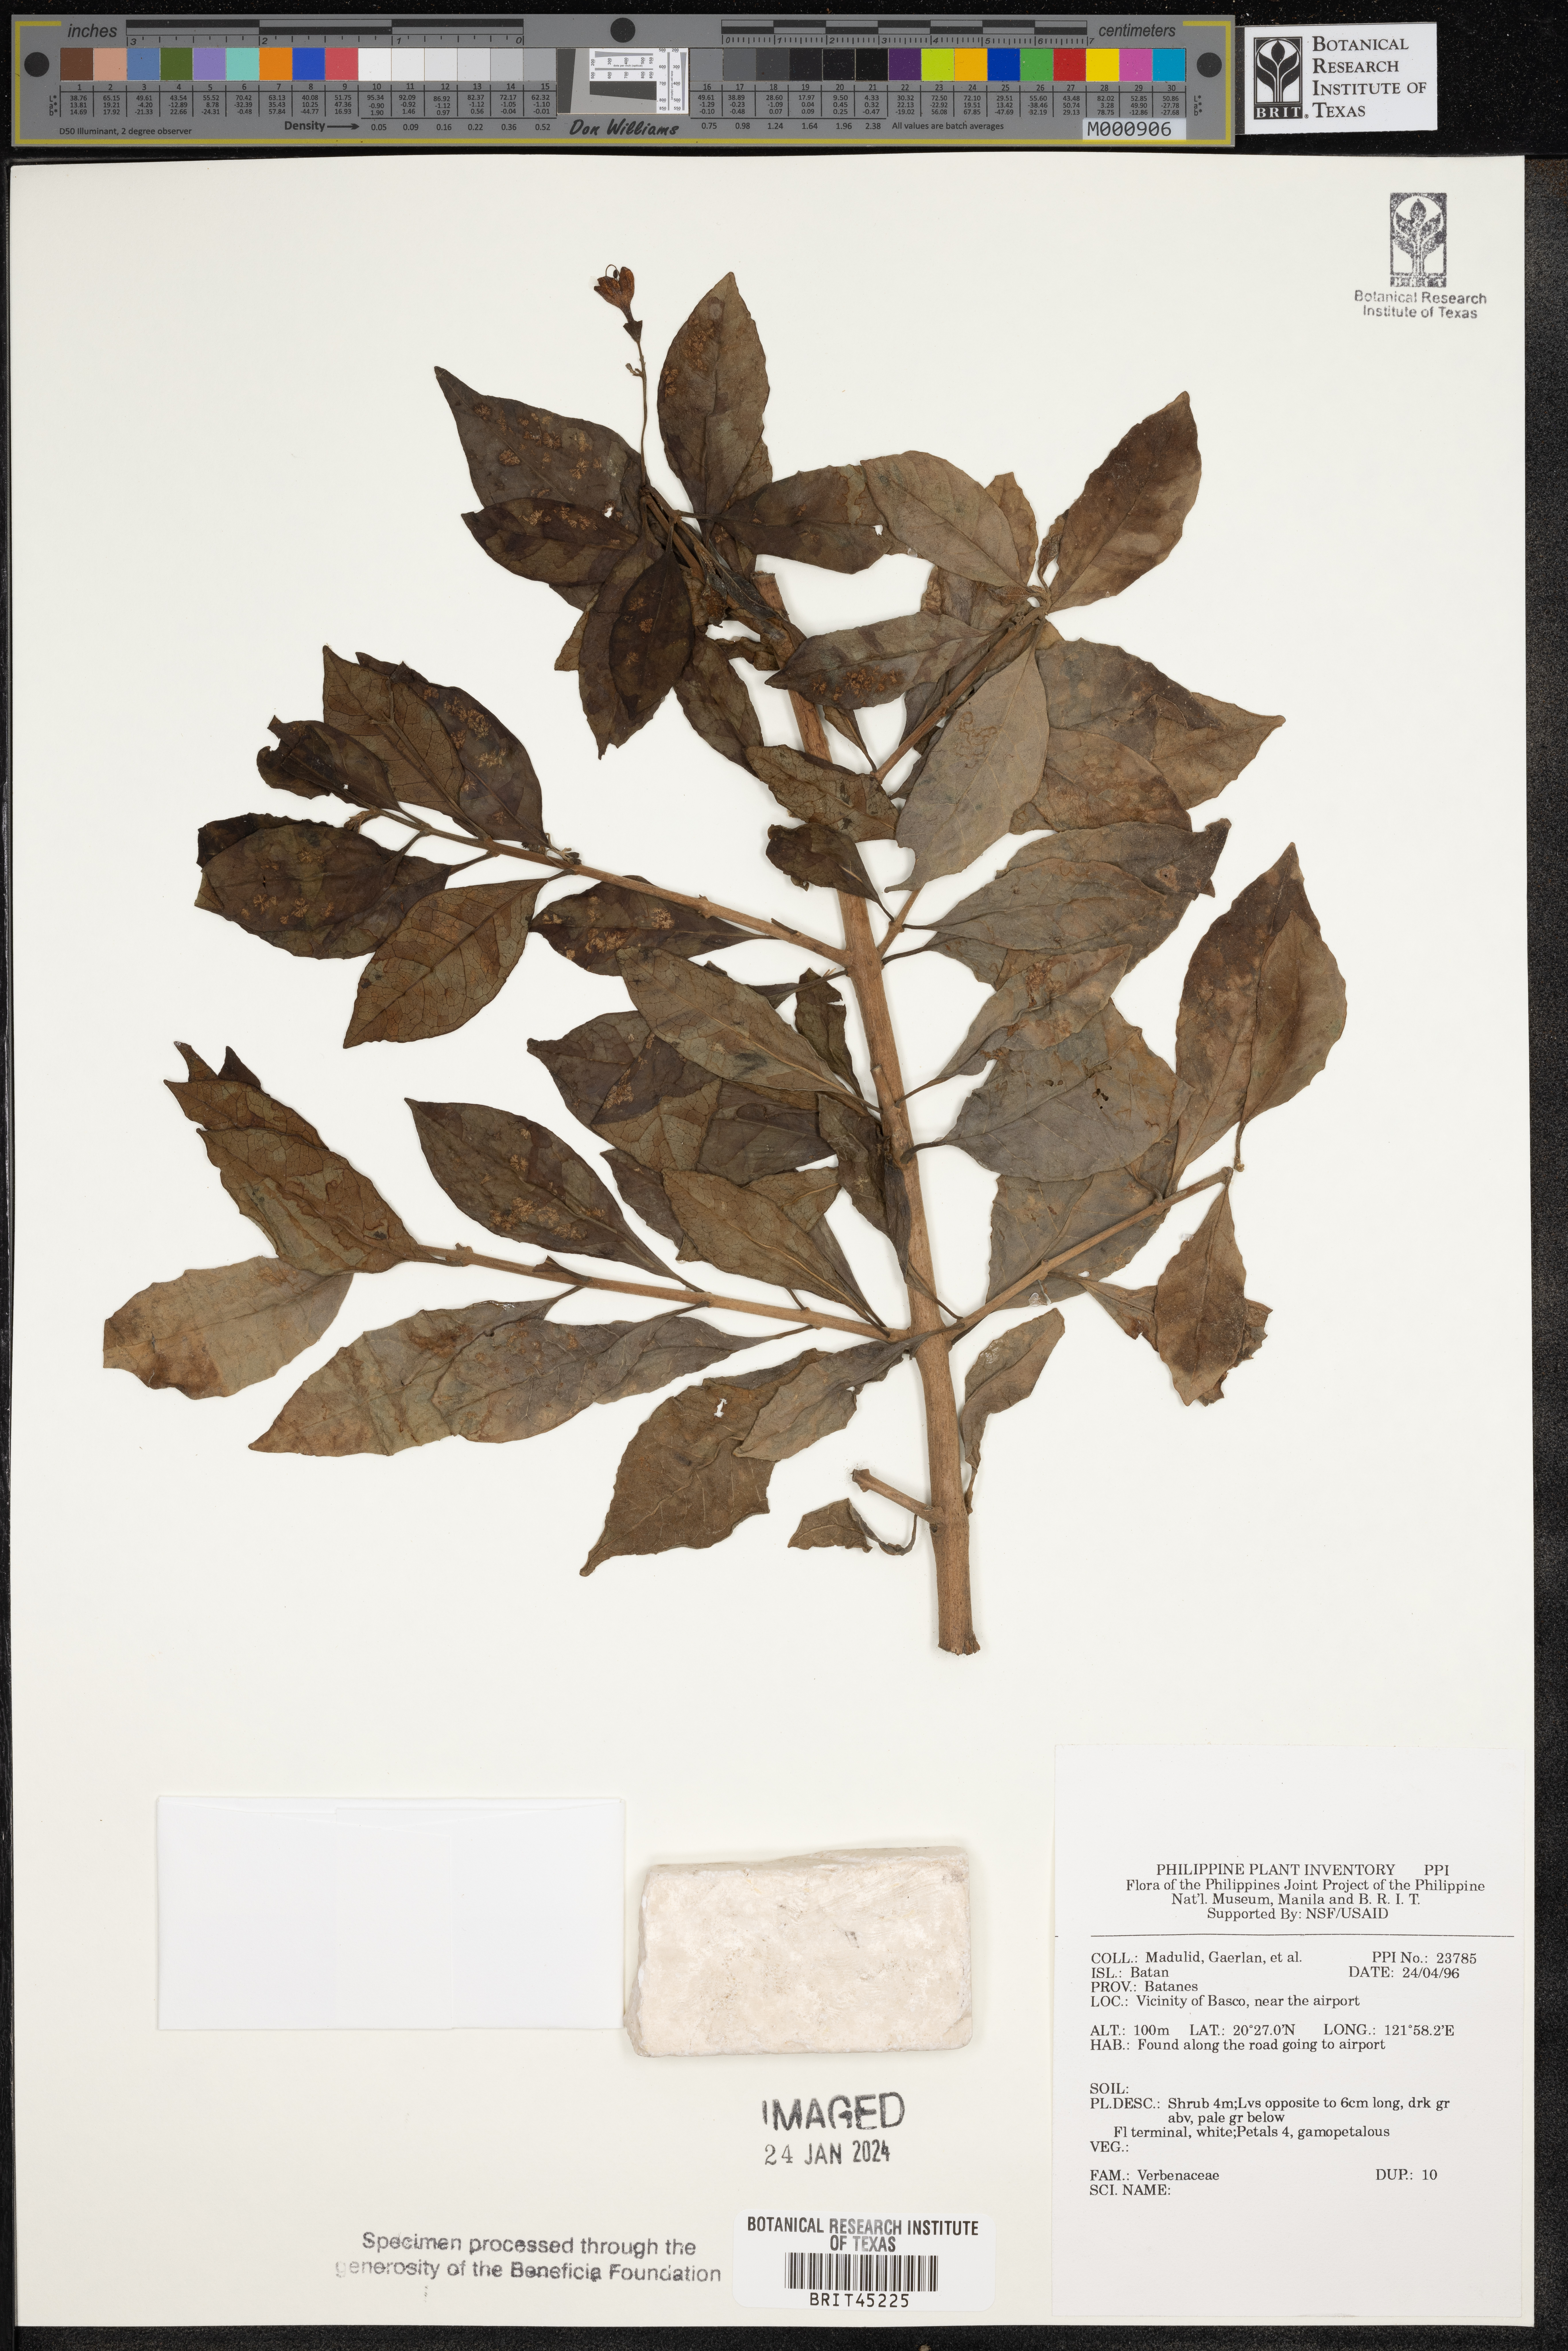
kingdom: Plantae
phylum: Tracheophyta
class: Magnoliopsida
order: Lamiales
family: Verbenaceae
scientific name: Verbenaceae
